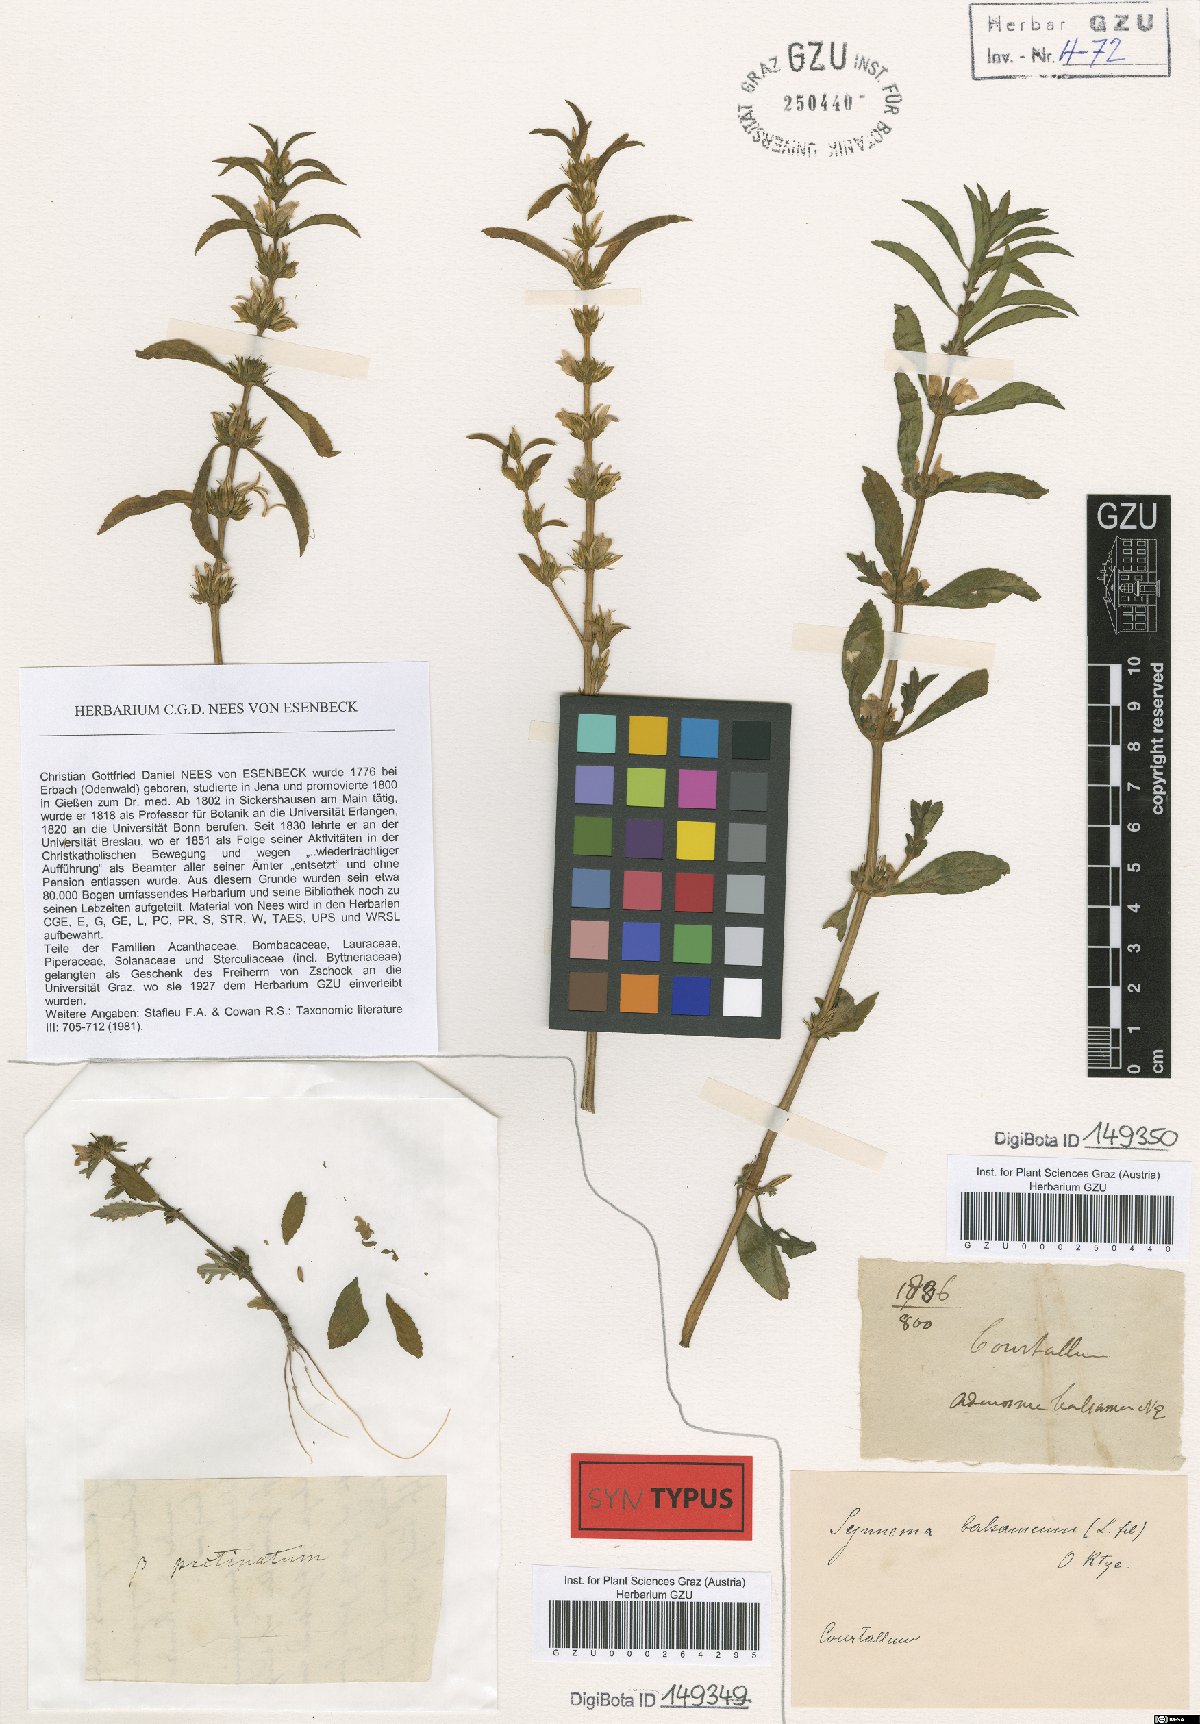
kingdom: Plantae
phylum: Tracheophyta
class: Magnoliopsida
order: Lamiales
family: Acanthaceae
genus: Hygrophila
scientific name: Hygrophila balsamica
